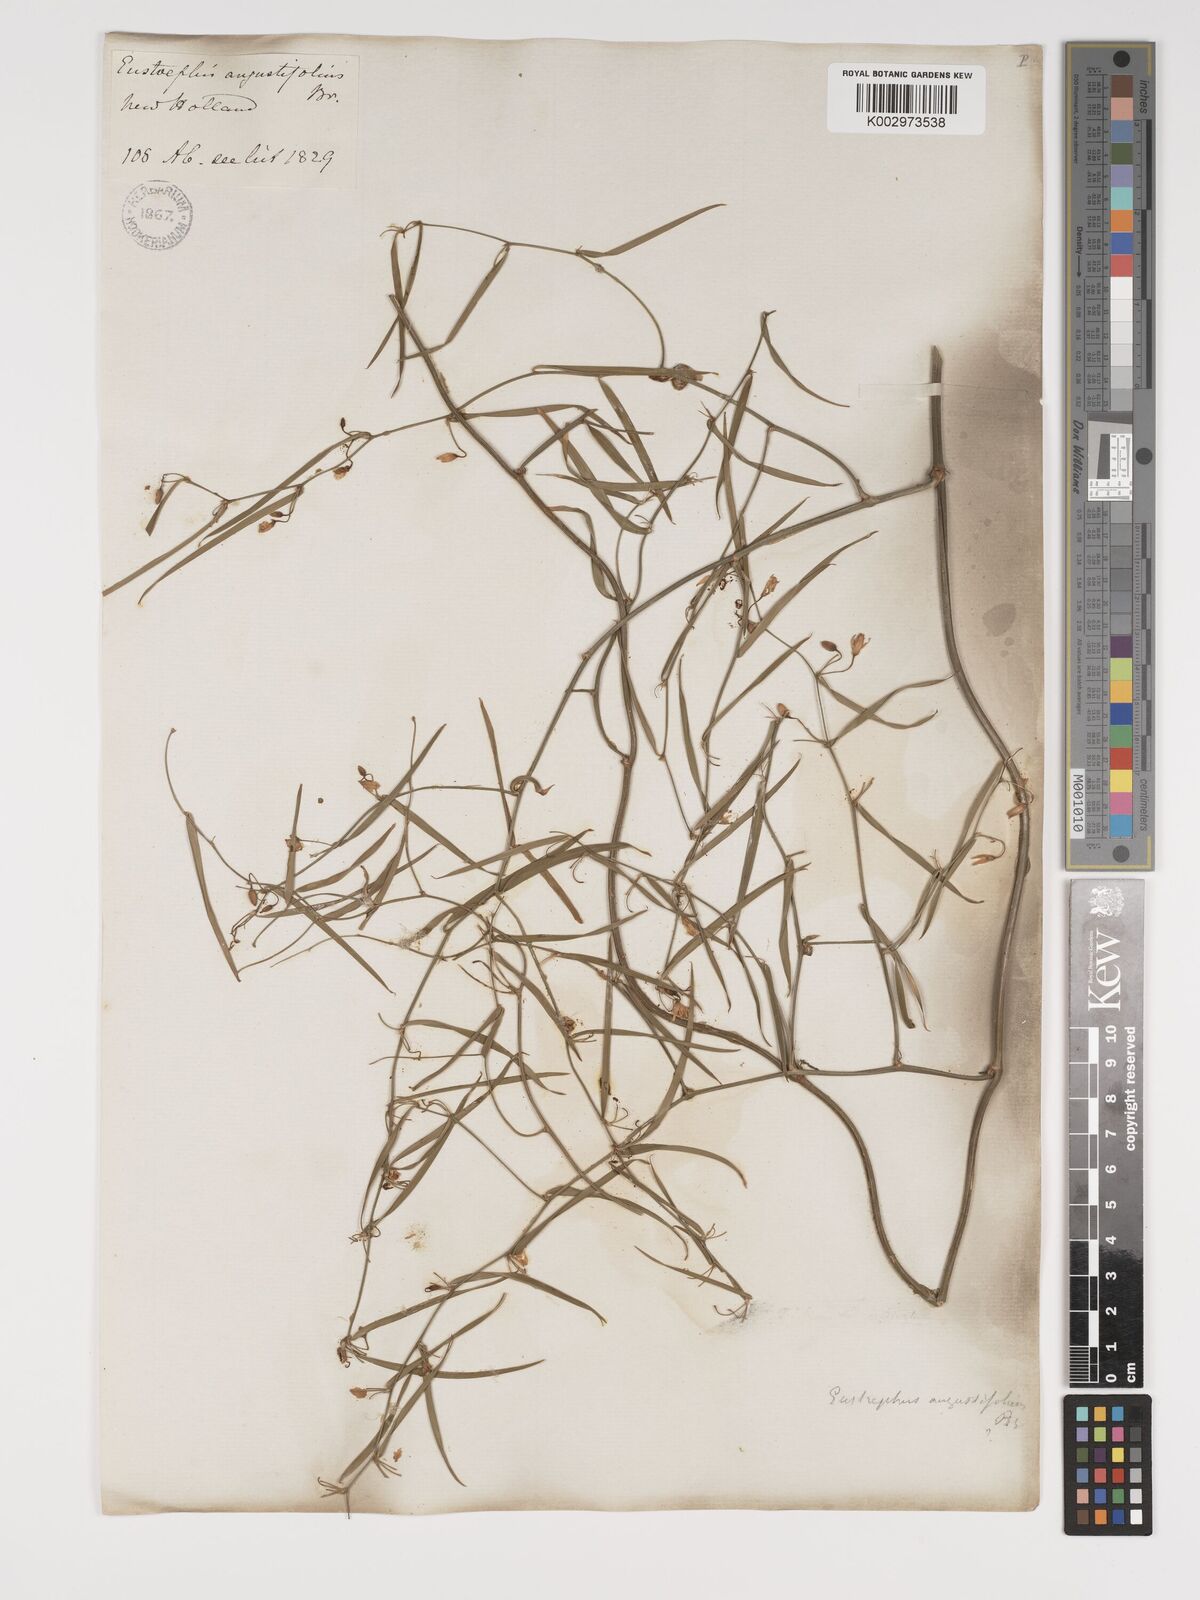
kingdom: Plantae
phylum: Tracheophyta
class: Liliopsida
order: Asparagales
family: Asparagaceae
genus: Eustrephus
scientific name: Eustrephus latifolius
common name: Orangevine
